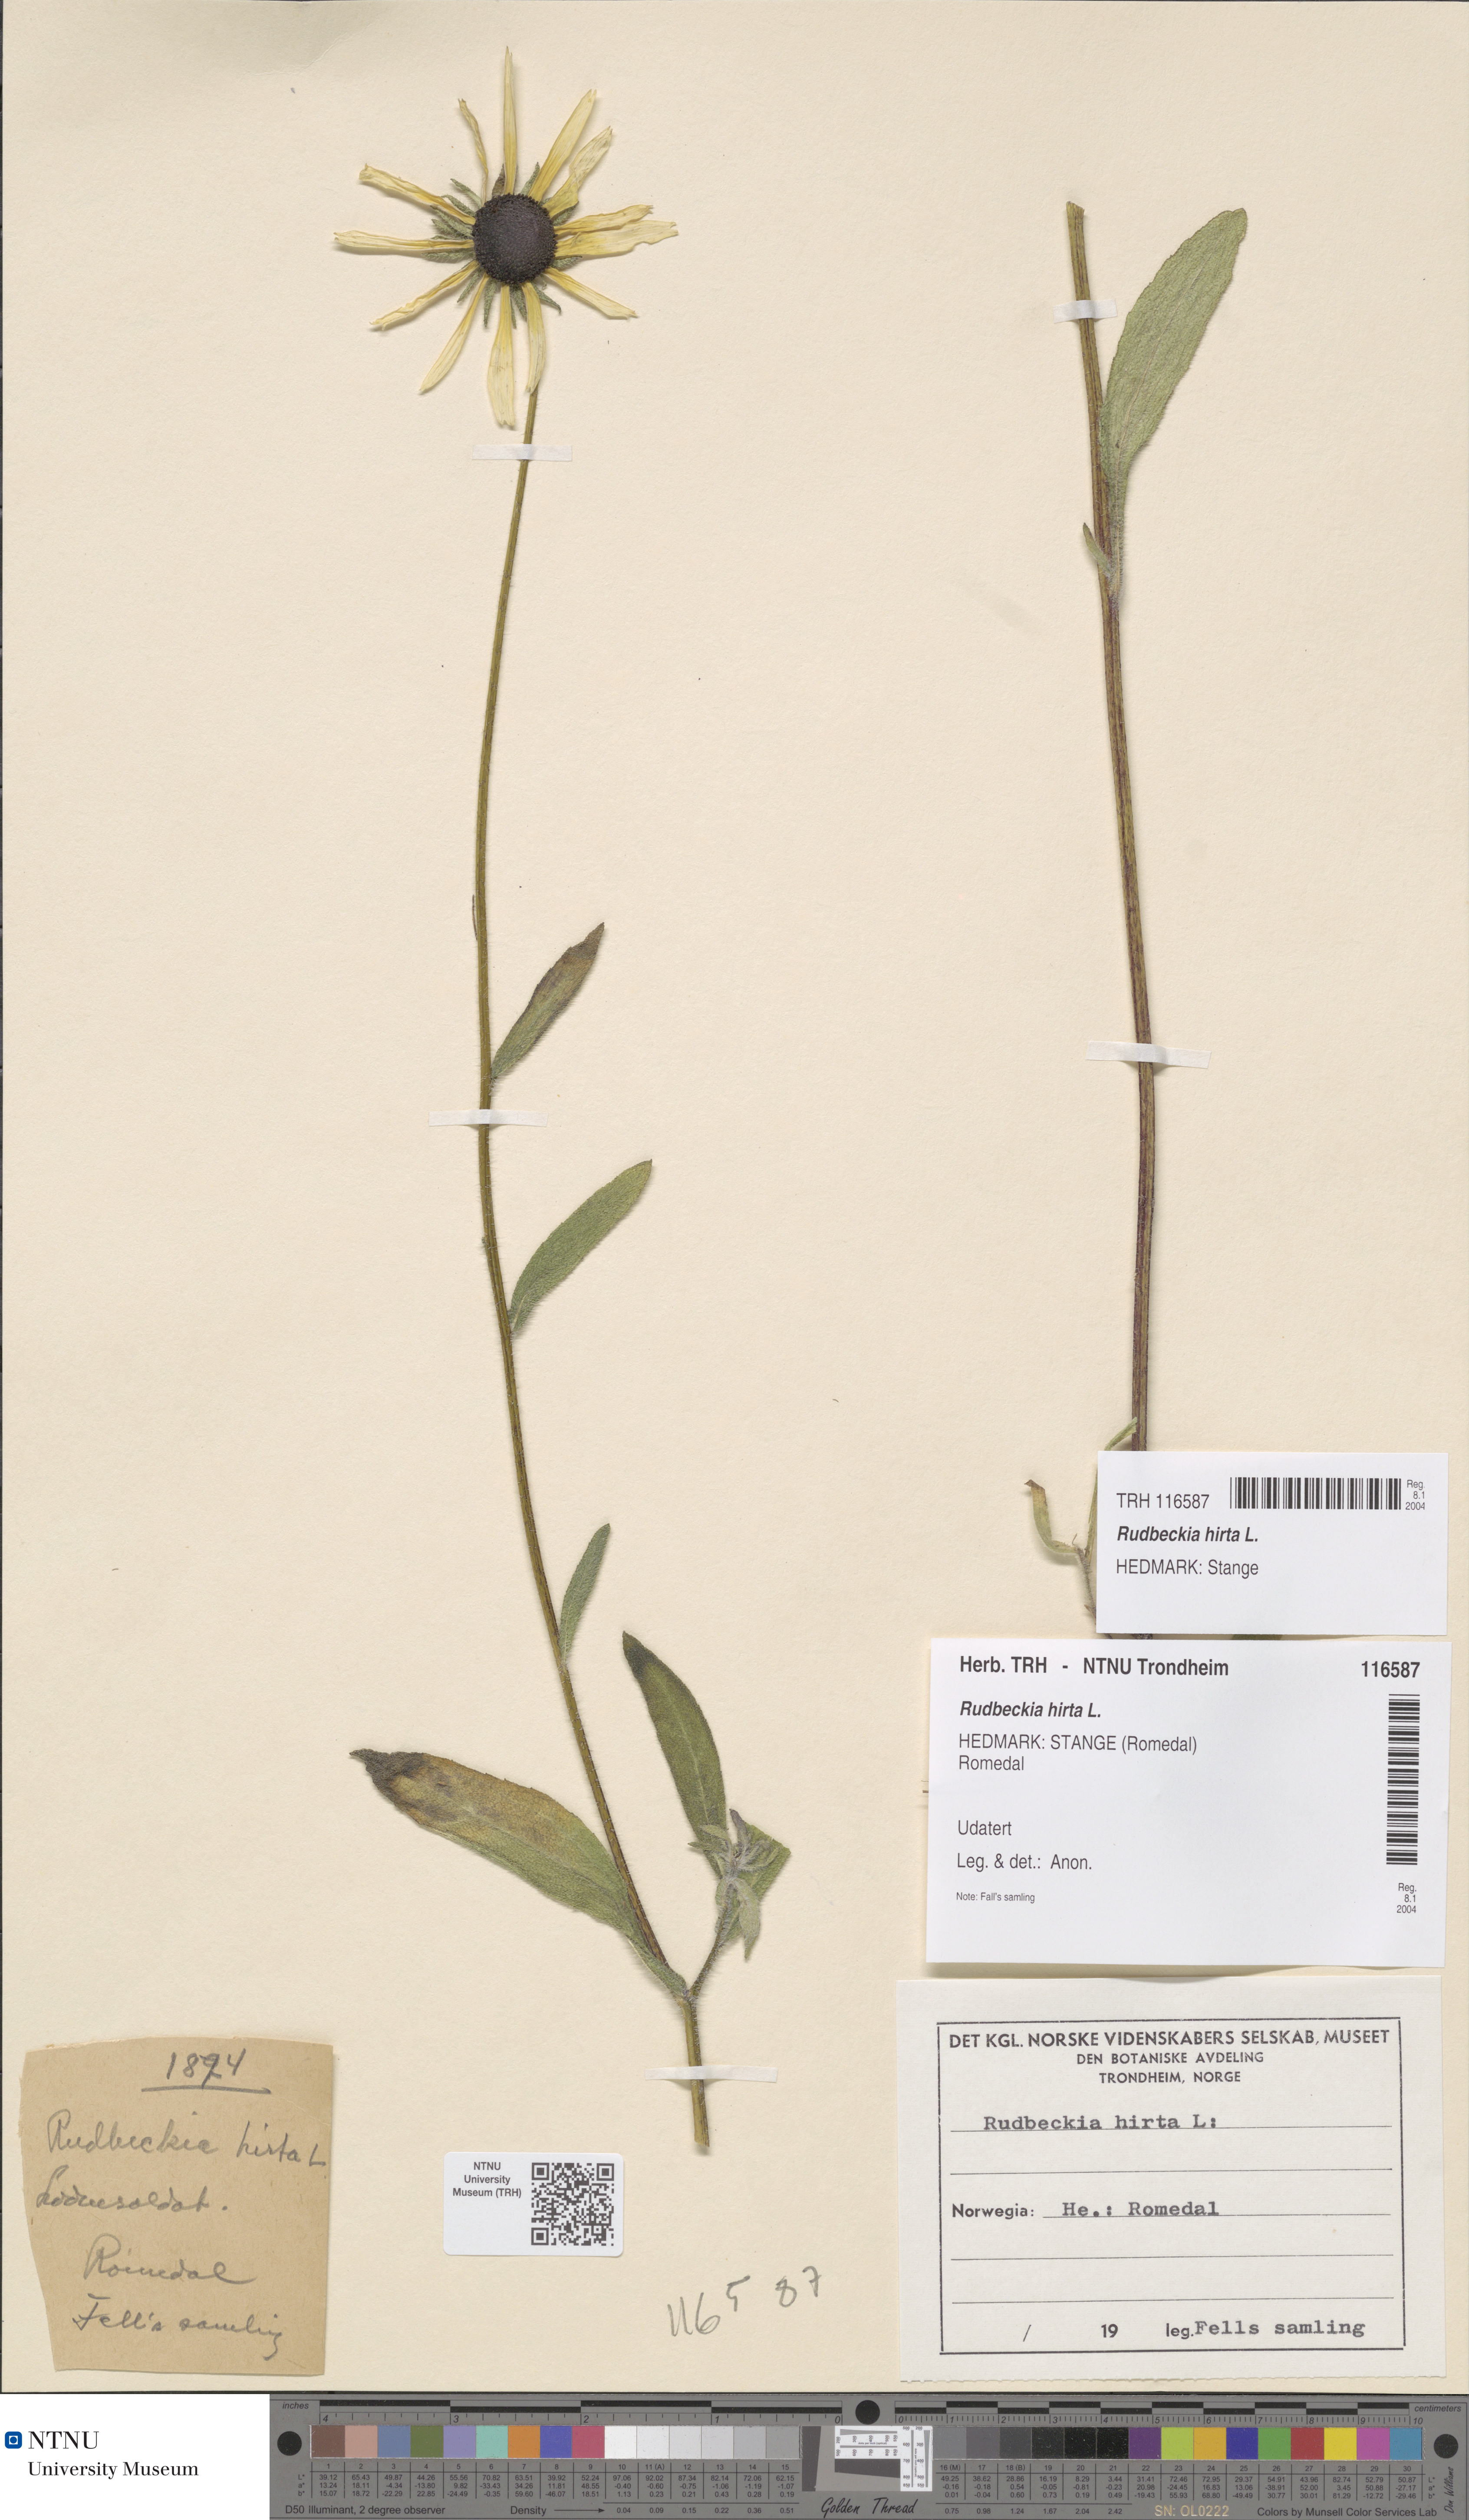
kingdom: Plantae
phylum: Tracheophyta
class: Magnoliopsida
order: Asterales
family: Asteraceae
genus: Rudbeckia
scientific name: Rudbeckia hirta
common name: Black-eyed-susan
